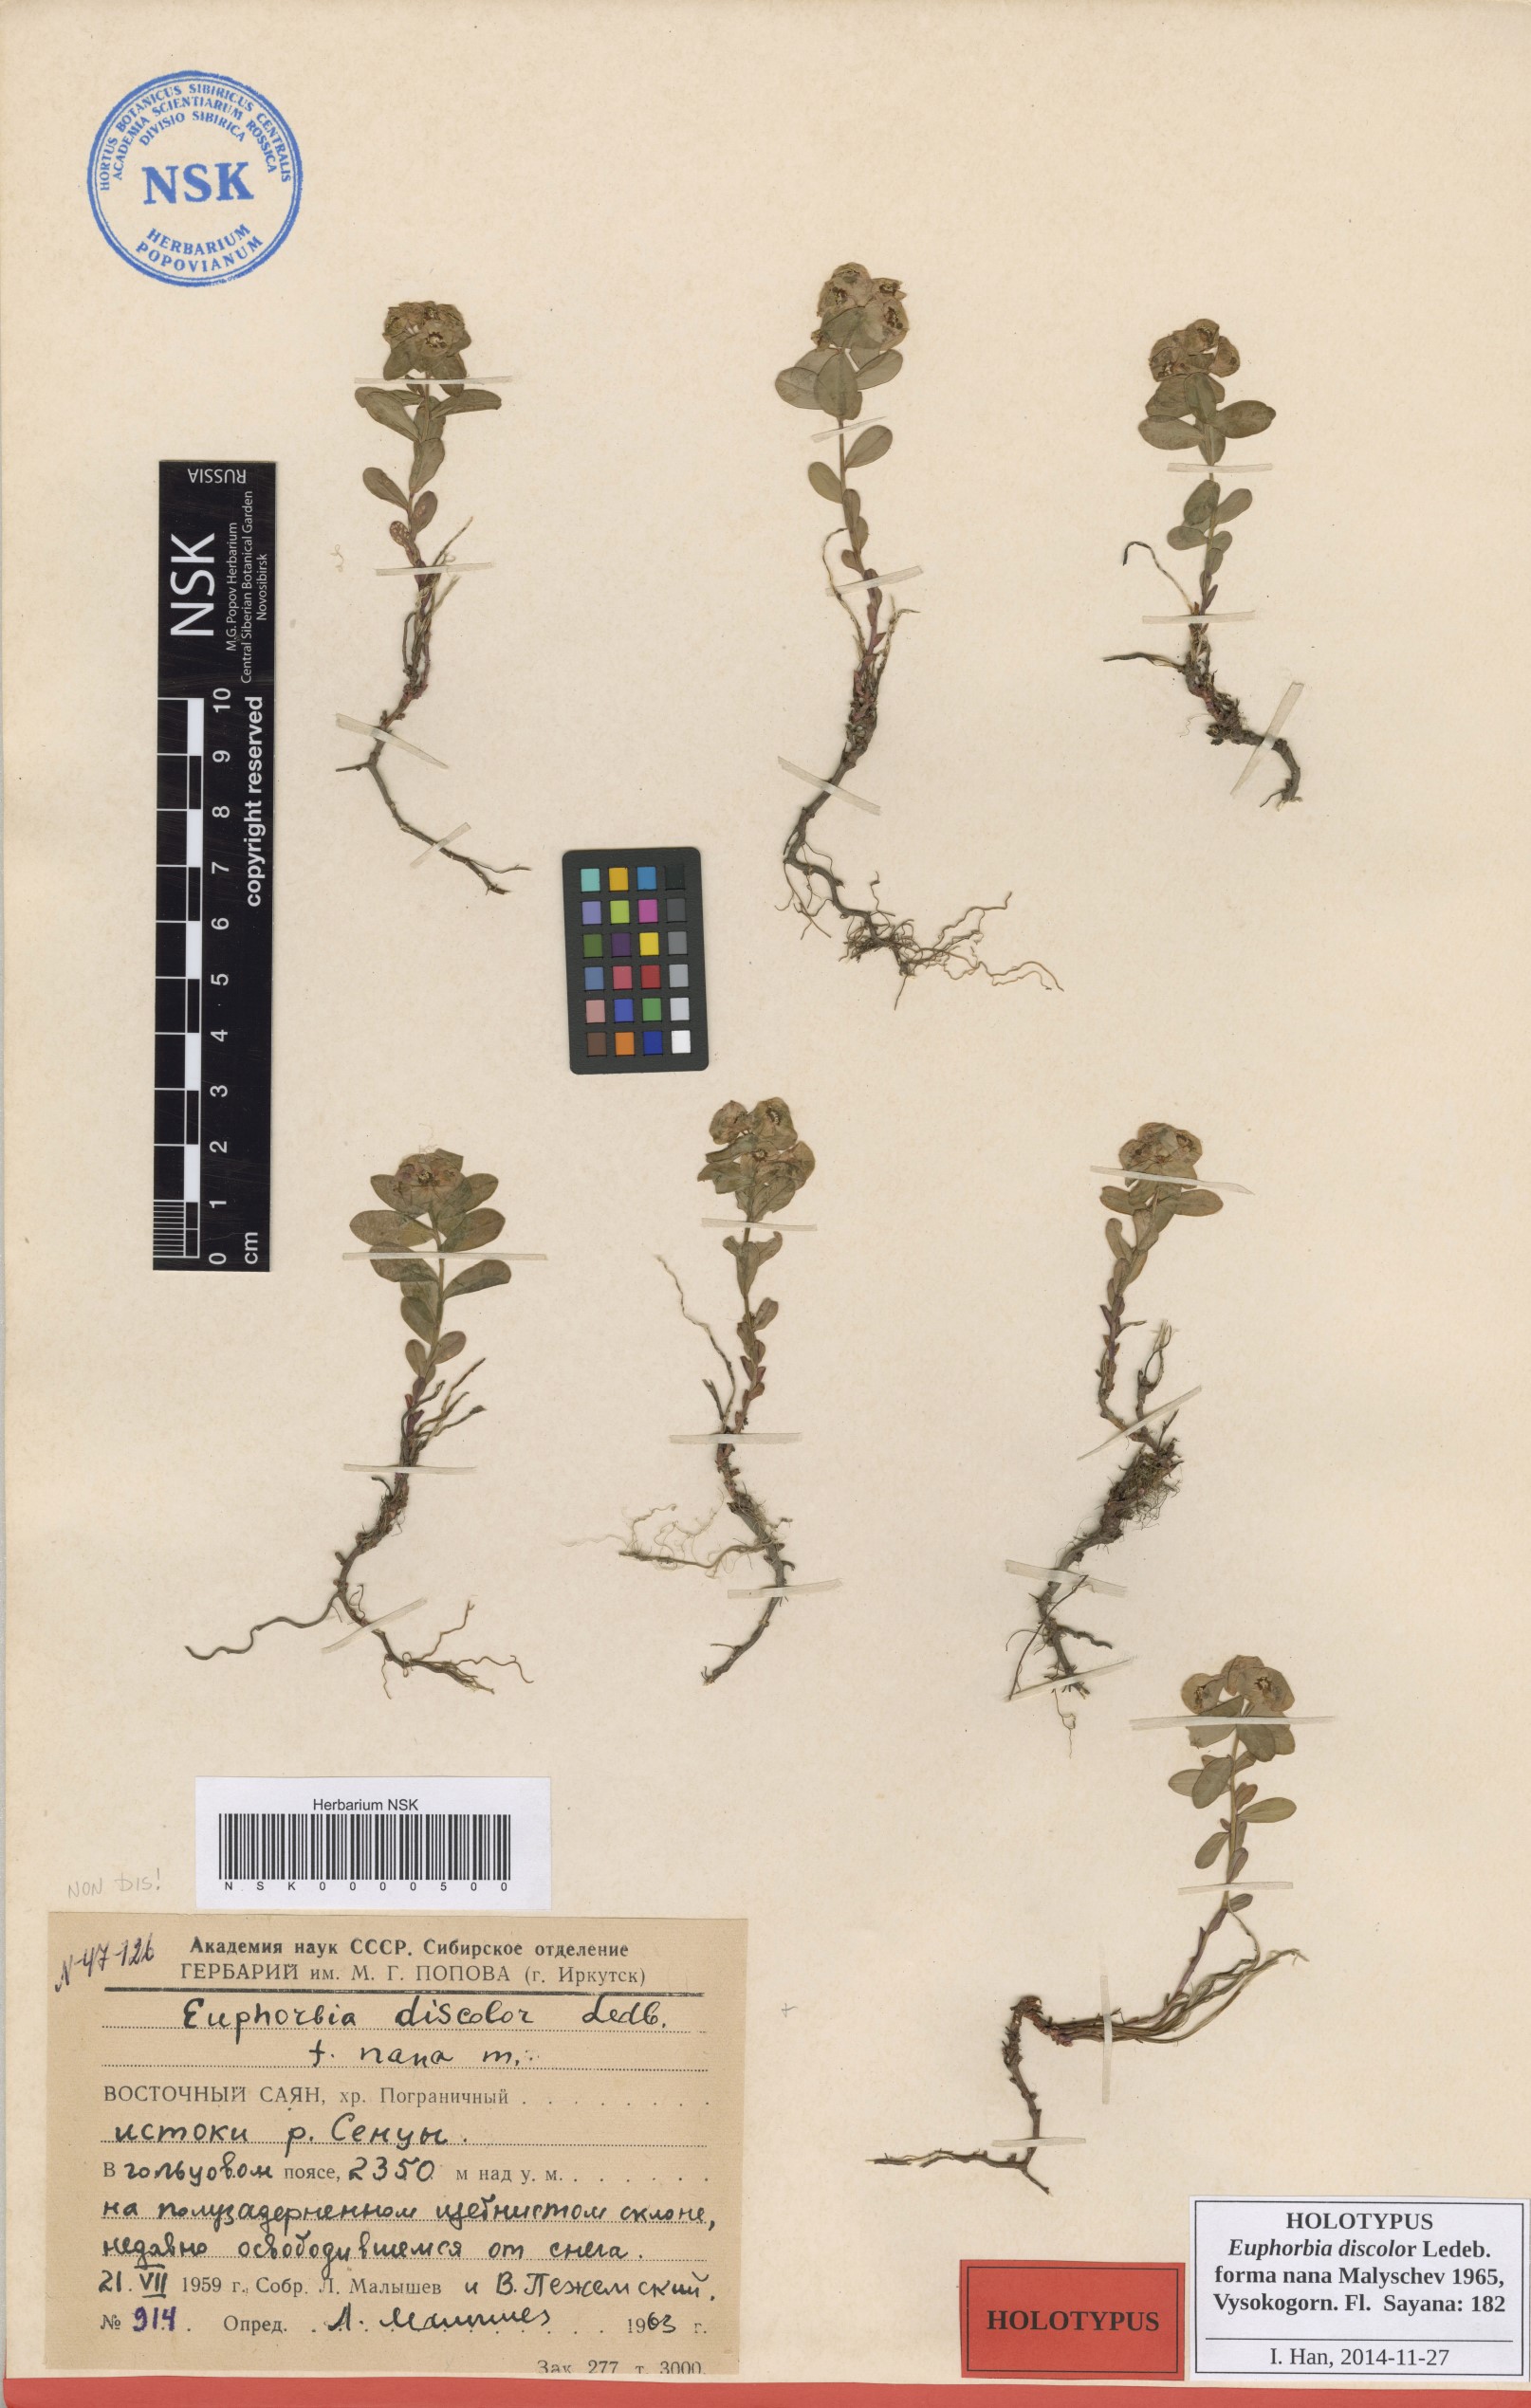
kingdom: Plantae
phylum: Tracheophyta
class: Magnoliopsida
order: Malpighiales
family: Euphorbiaceae
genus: Euphorbia
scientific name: Euphorbia
